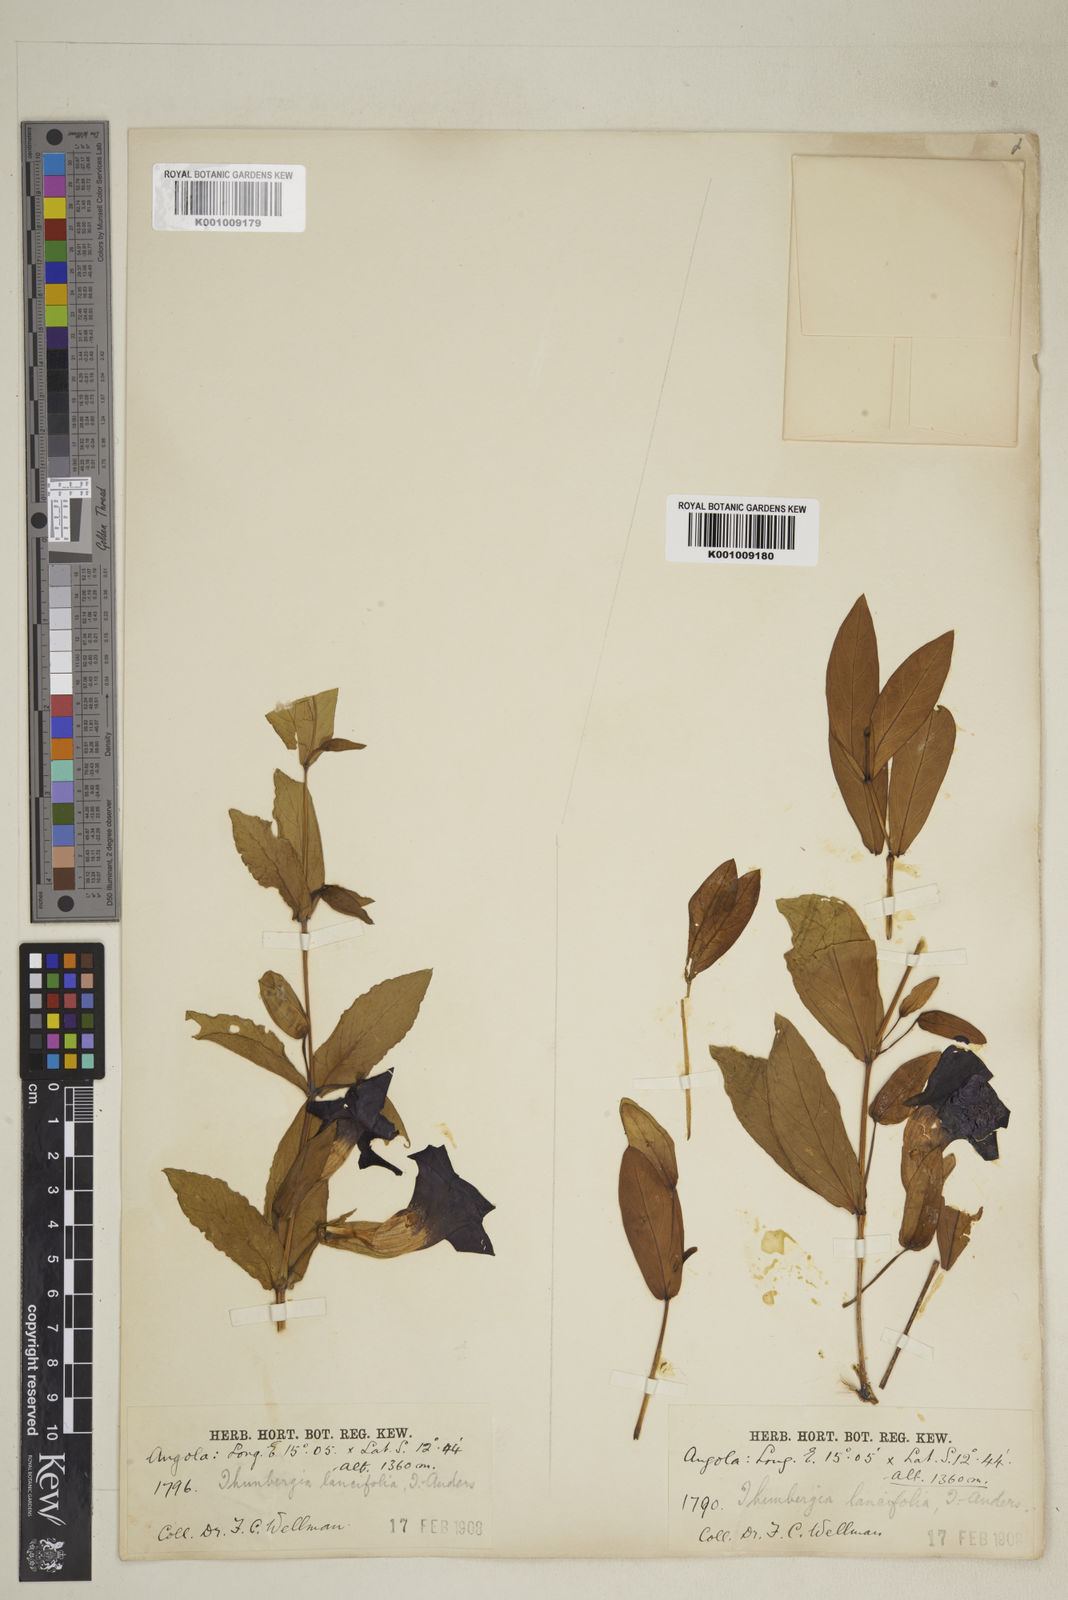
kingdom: Plantae
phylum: Tracheophyta
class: Magnoliopsida
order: Lamiales
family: Acanthaceae
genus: Thunbergia
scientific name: Thunbergia lancifolia
